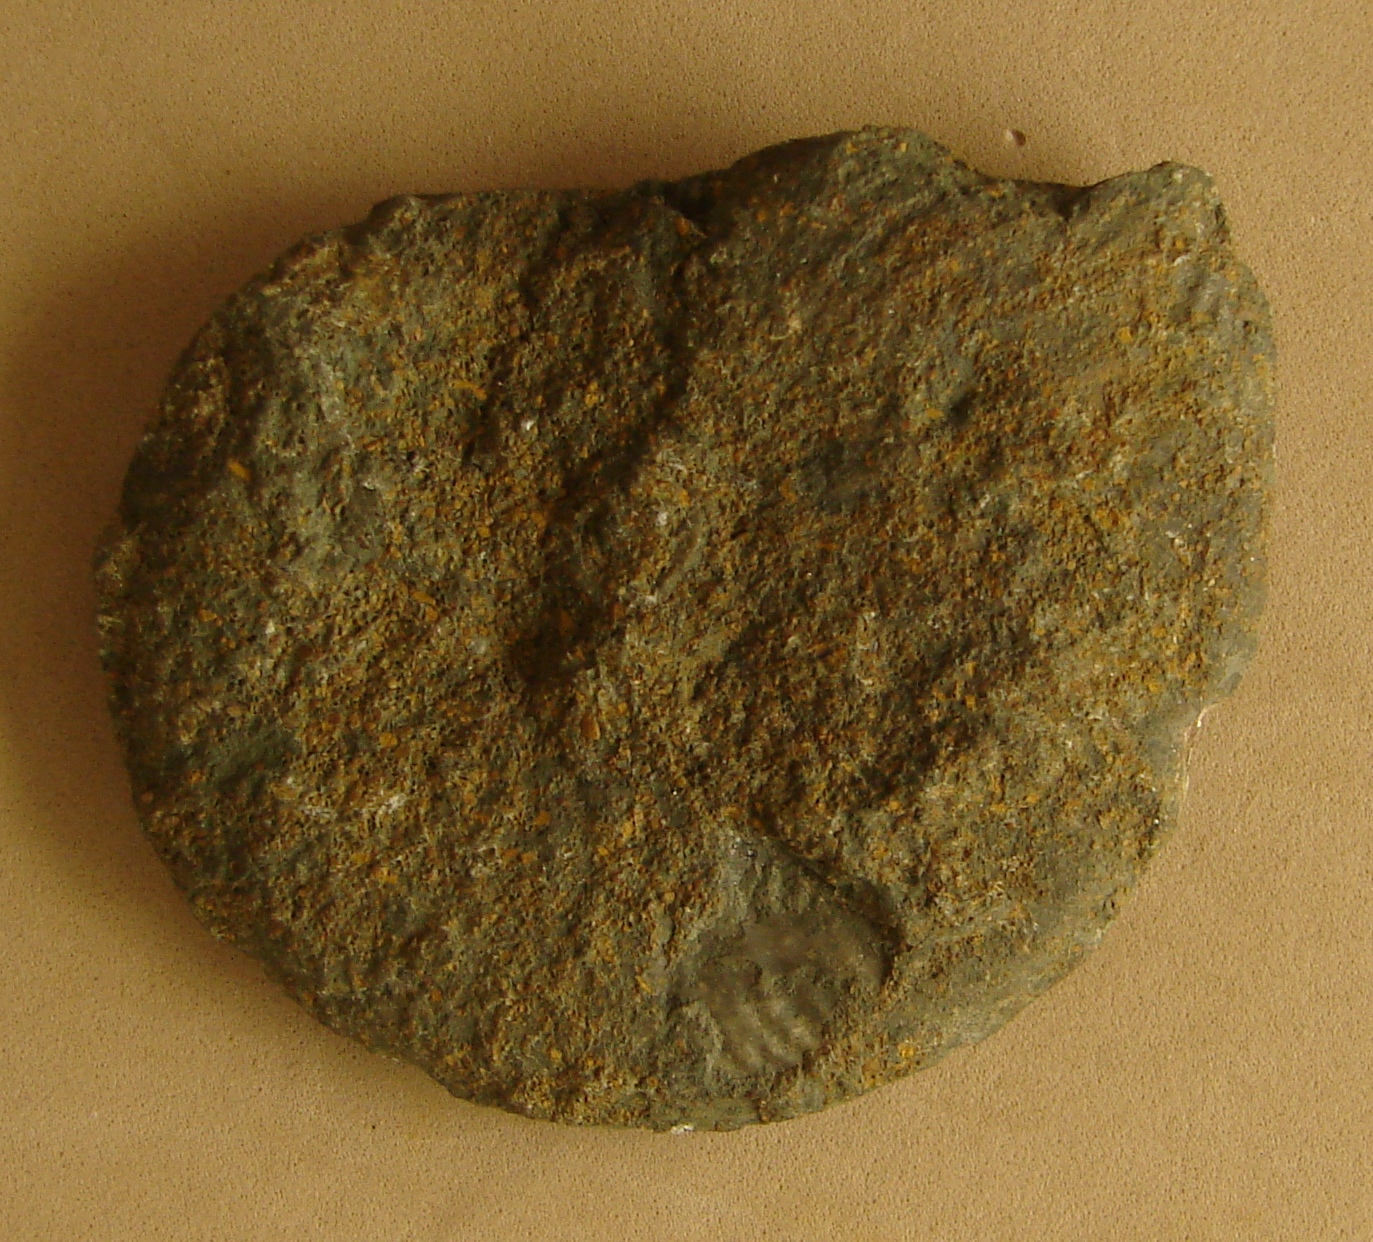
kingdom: Animalia
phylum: Mollusca
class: Cephalopoda
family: Hildoceratidae
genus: Pleydellia
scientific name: Pleydellia
